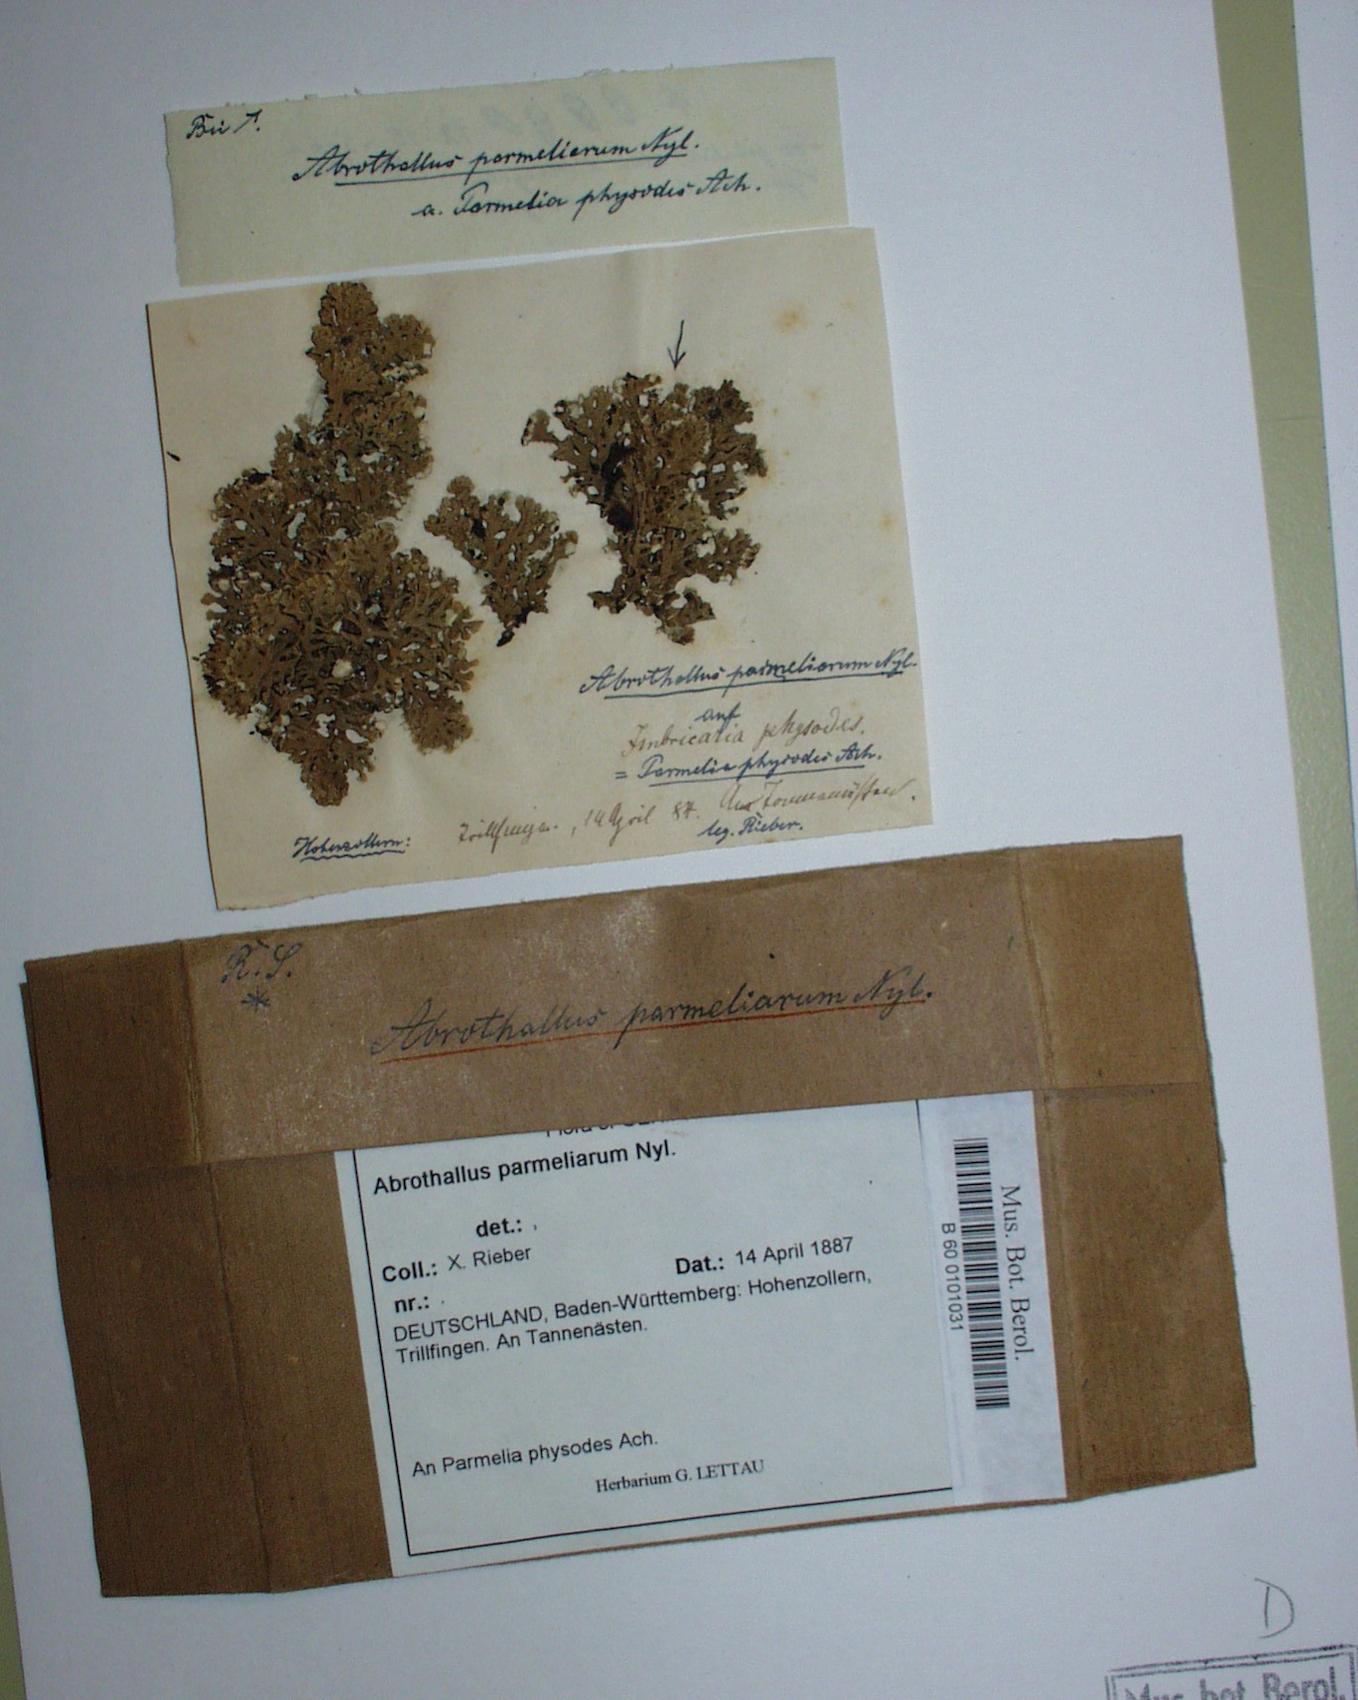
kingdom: Fungi
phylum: Ascomycota
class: Dothideomycetes
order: Abrothallales
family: Abrothallaceae
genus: Abrothallus
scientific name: Abrothallus parmeliarum
